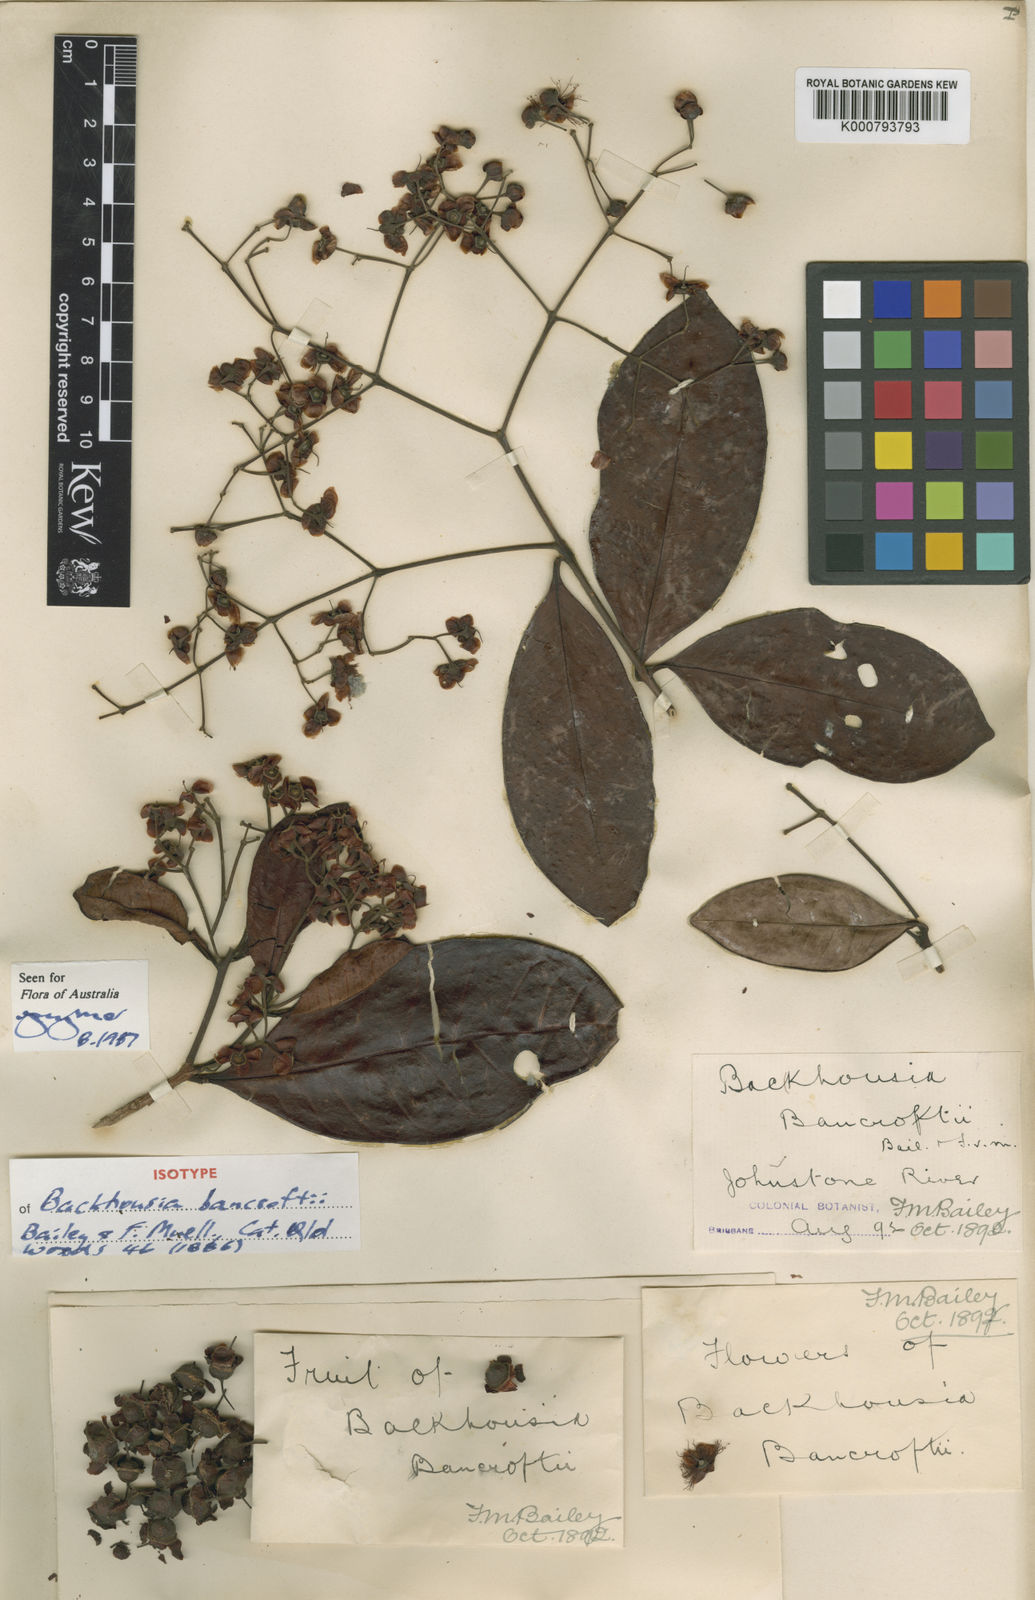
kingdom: Plantae
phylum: Tracheophyta
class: Magnoliopsida
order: Myrtales
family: Myrtaceae
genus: Backhousia
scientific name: Backhousia bancroftii
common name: Johnstone river hardwood
